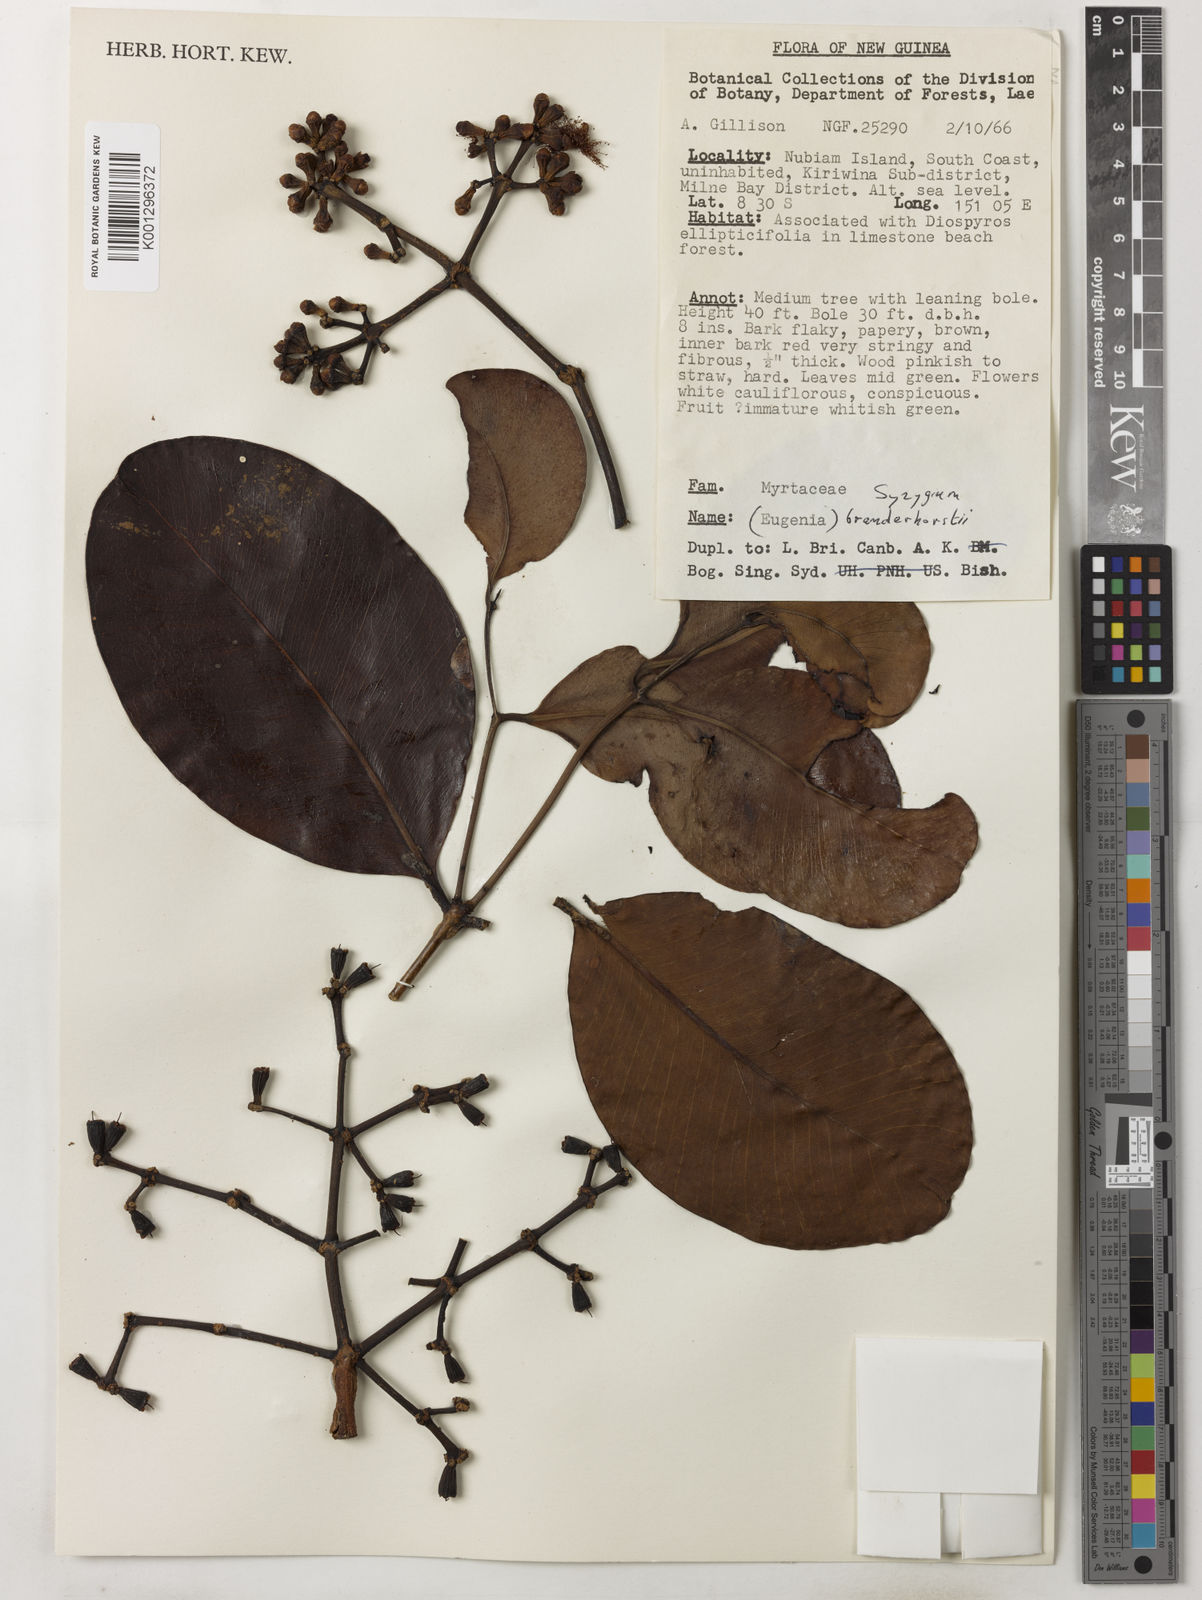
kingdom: Plantae
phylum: Tracheophyta
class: Magnoliopsida
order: Myrtales
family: Myrtaceae
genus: Syzygium
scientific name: Syzygium branderhorstii
